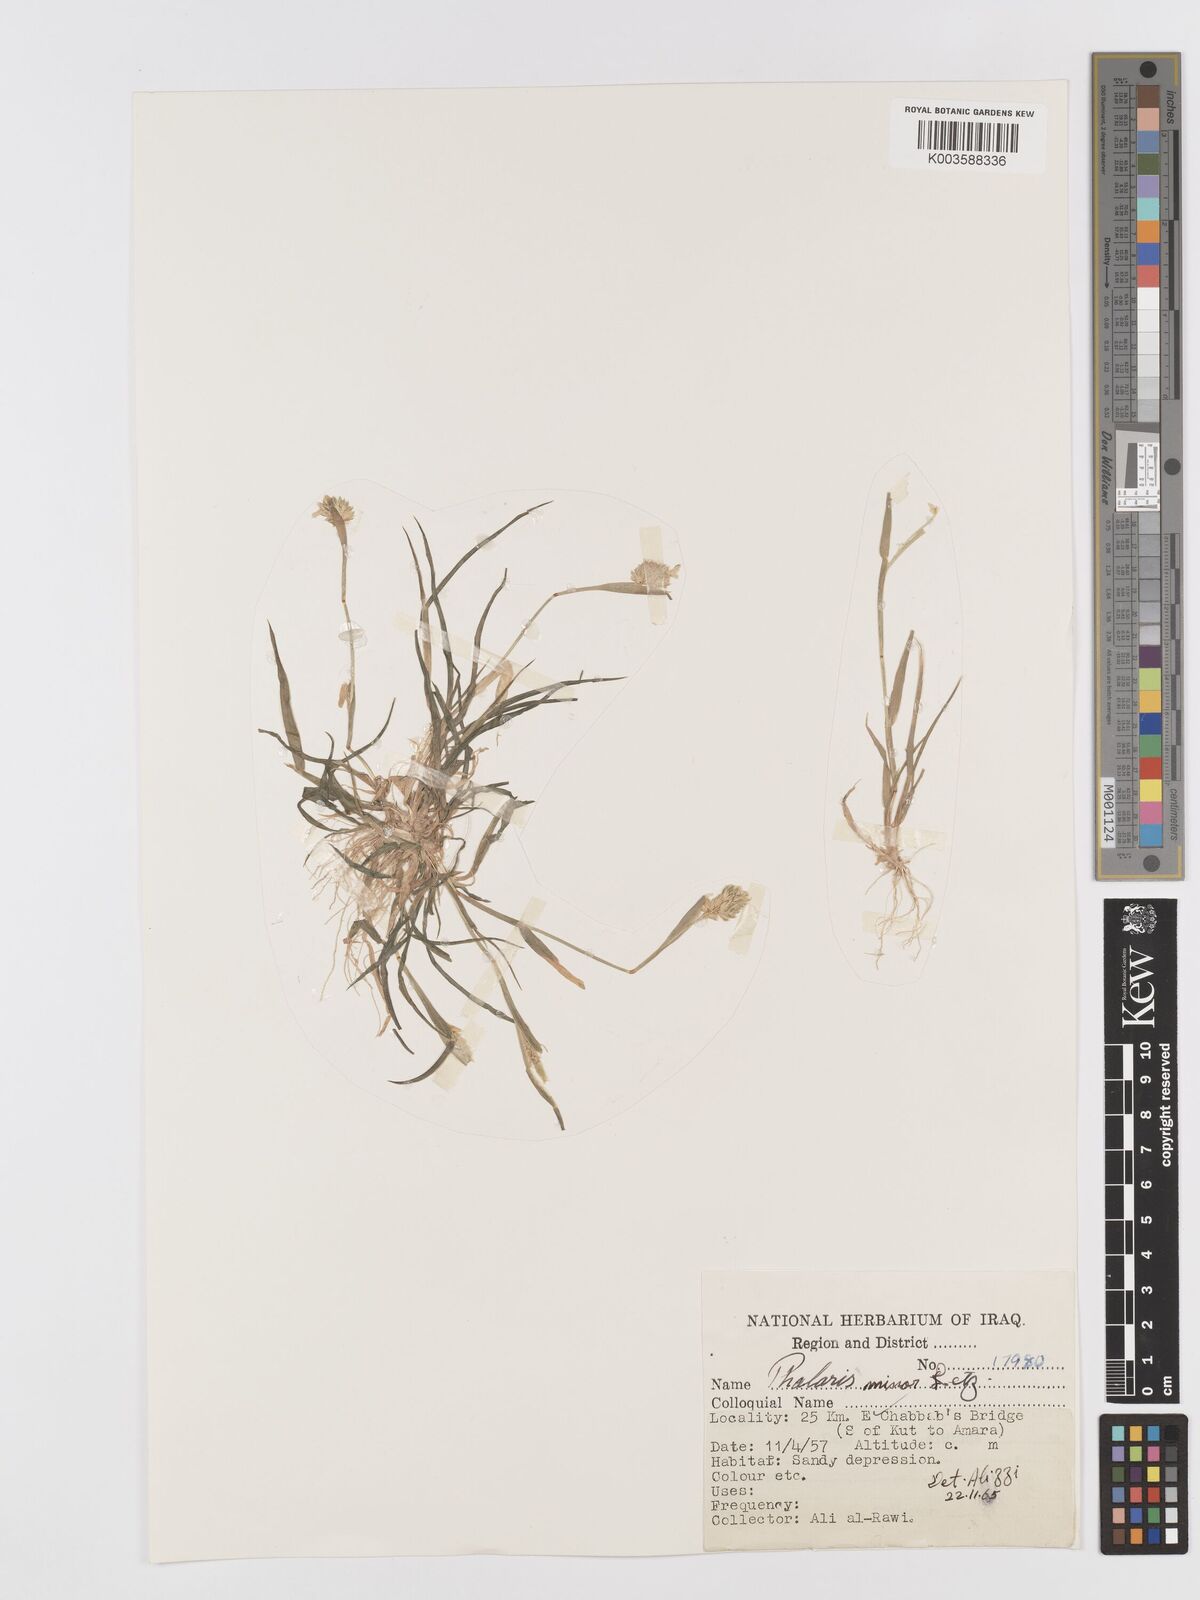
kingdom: Plantae
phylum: Tracheophyta
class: Liliopsida
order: Poales
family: Poaceae
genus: Phalaris
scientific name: Phalaris minor
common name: Littleseed canarygrass
